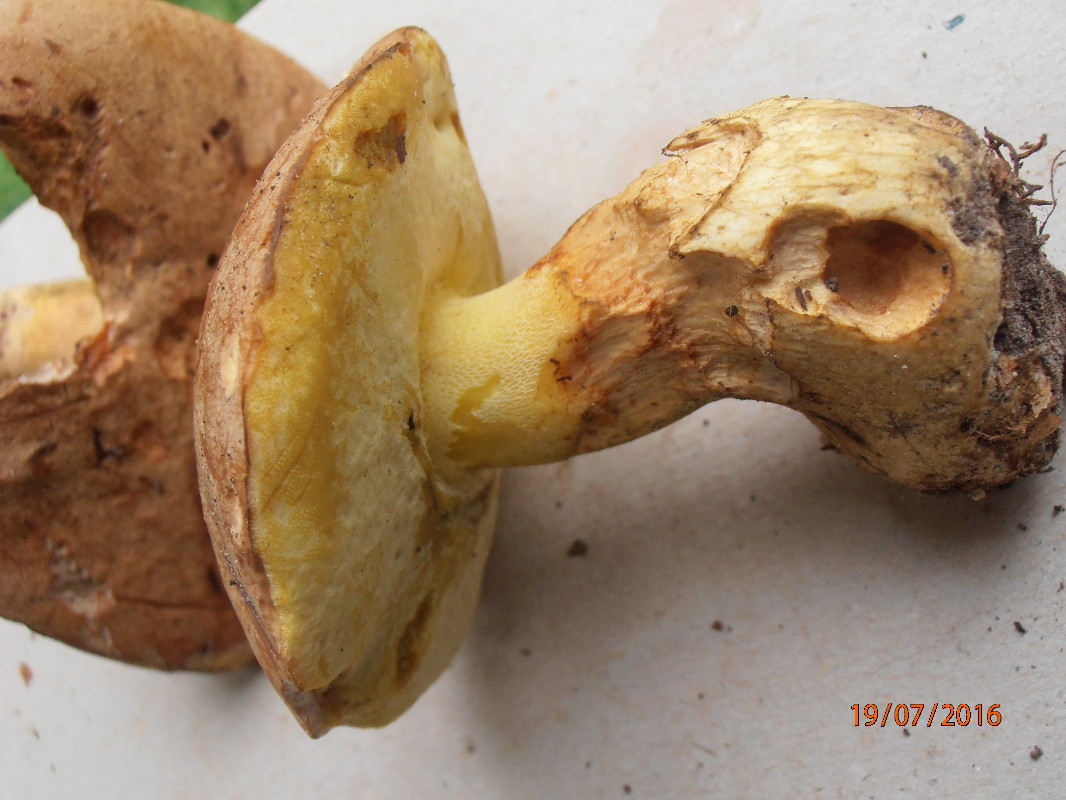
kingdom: Fungi
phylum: Basidiomycota
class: Agaricomycetes
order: Boletales
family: Boletaceae
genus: Butyriboletus
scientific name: Butyriboletus subappendiculatus
